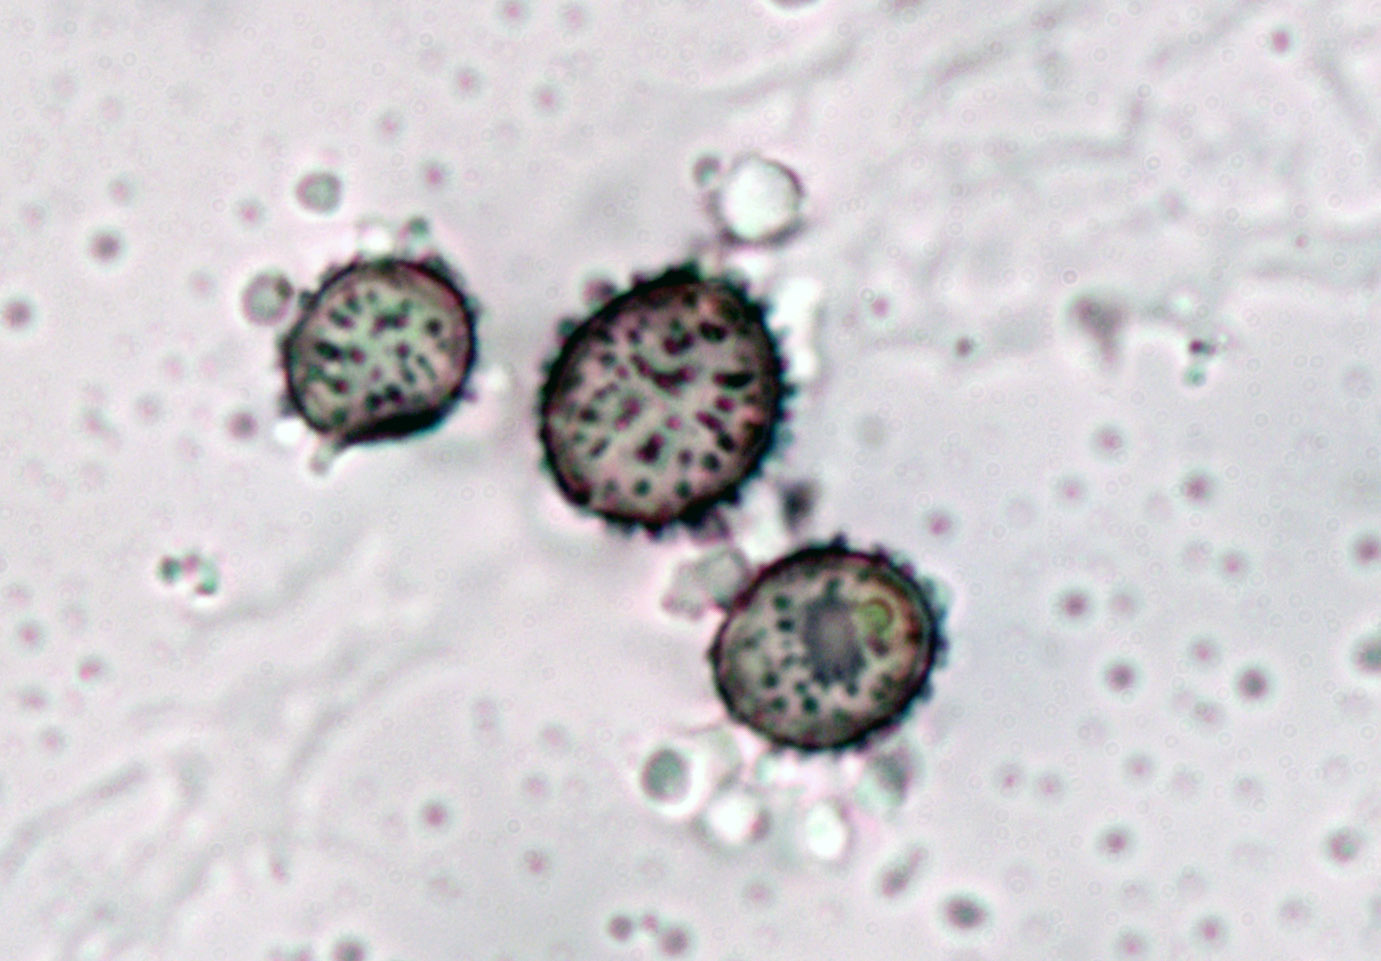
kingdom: Fungi
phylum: Basidiomycota
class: Agaricomycetes
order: Russulales
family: Russulaceae
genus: Russula
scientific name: Russula emetica
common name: matrød skørhat
